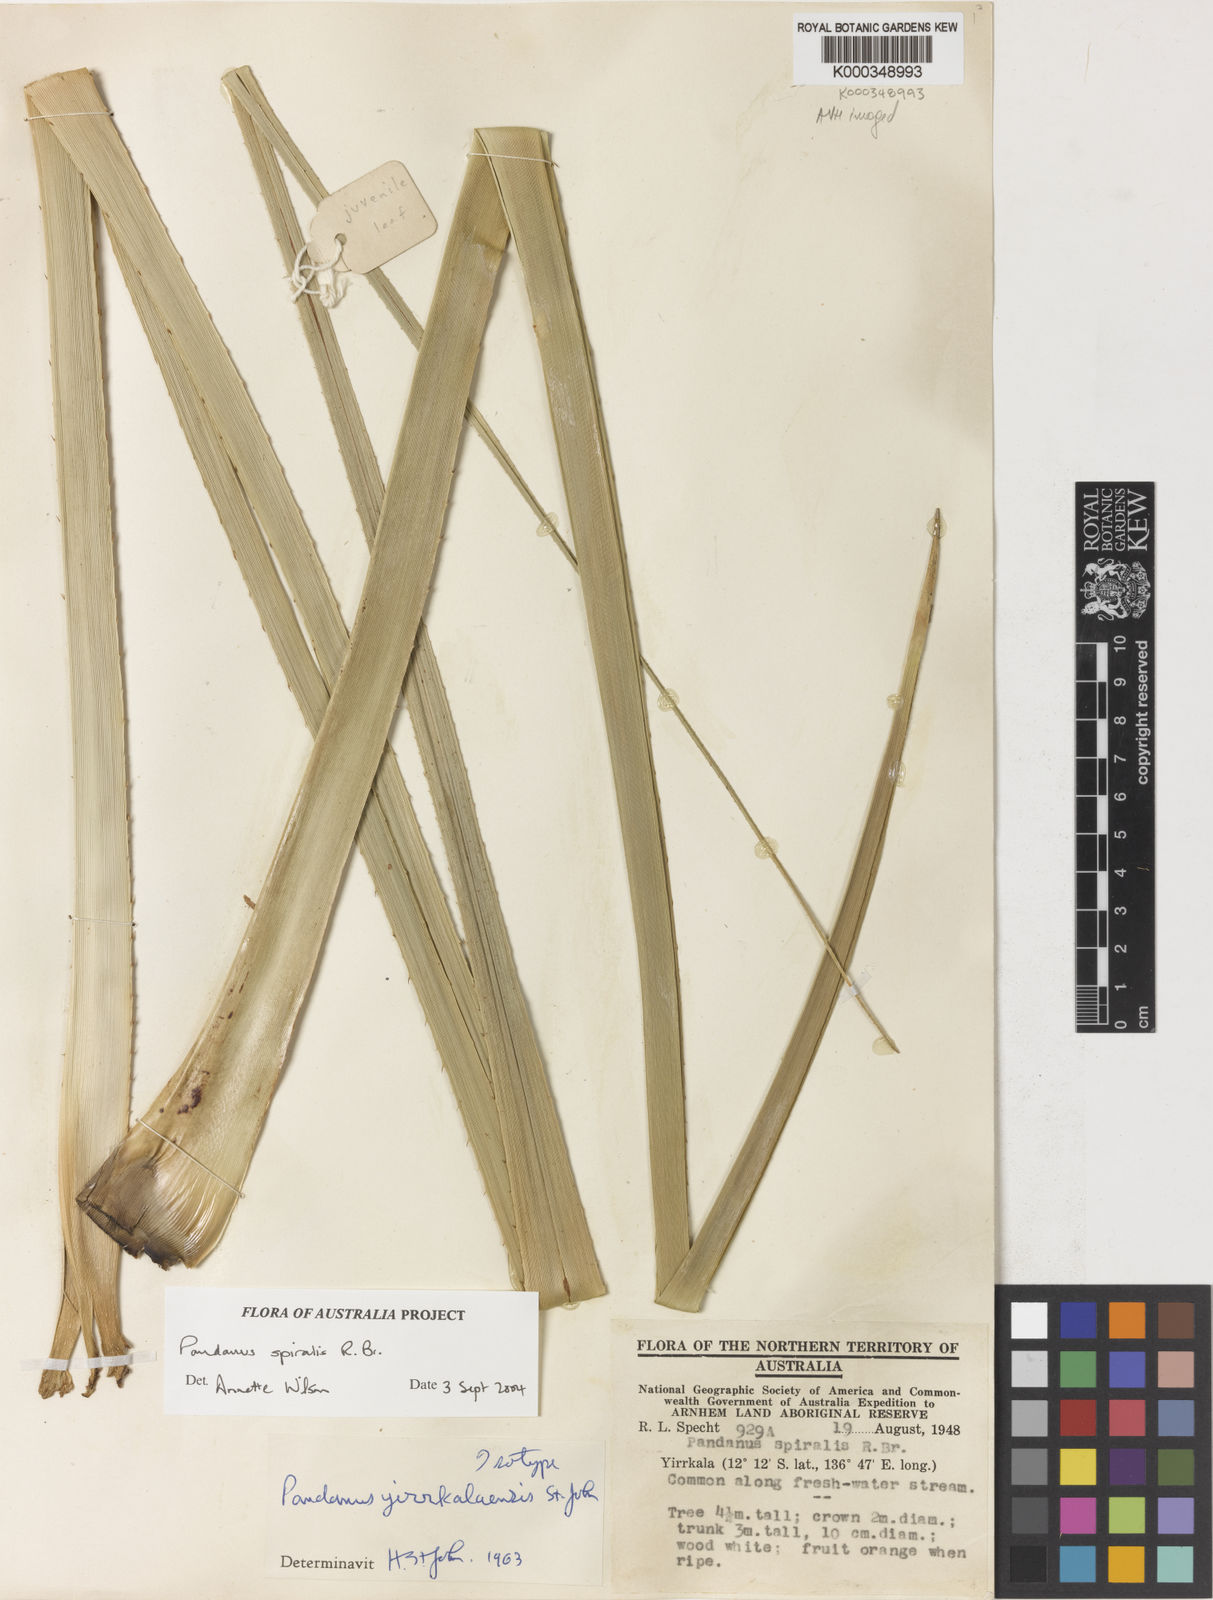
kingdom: Plantae
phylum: Tracheophyta
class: Liliopsida
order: Pandanales
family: Pandanaceae
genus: Pandanus
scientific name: Pandanus spiralis
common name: Screw-pine
